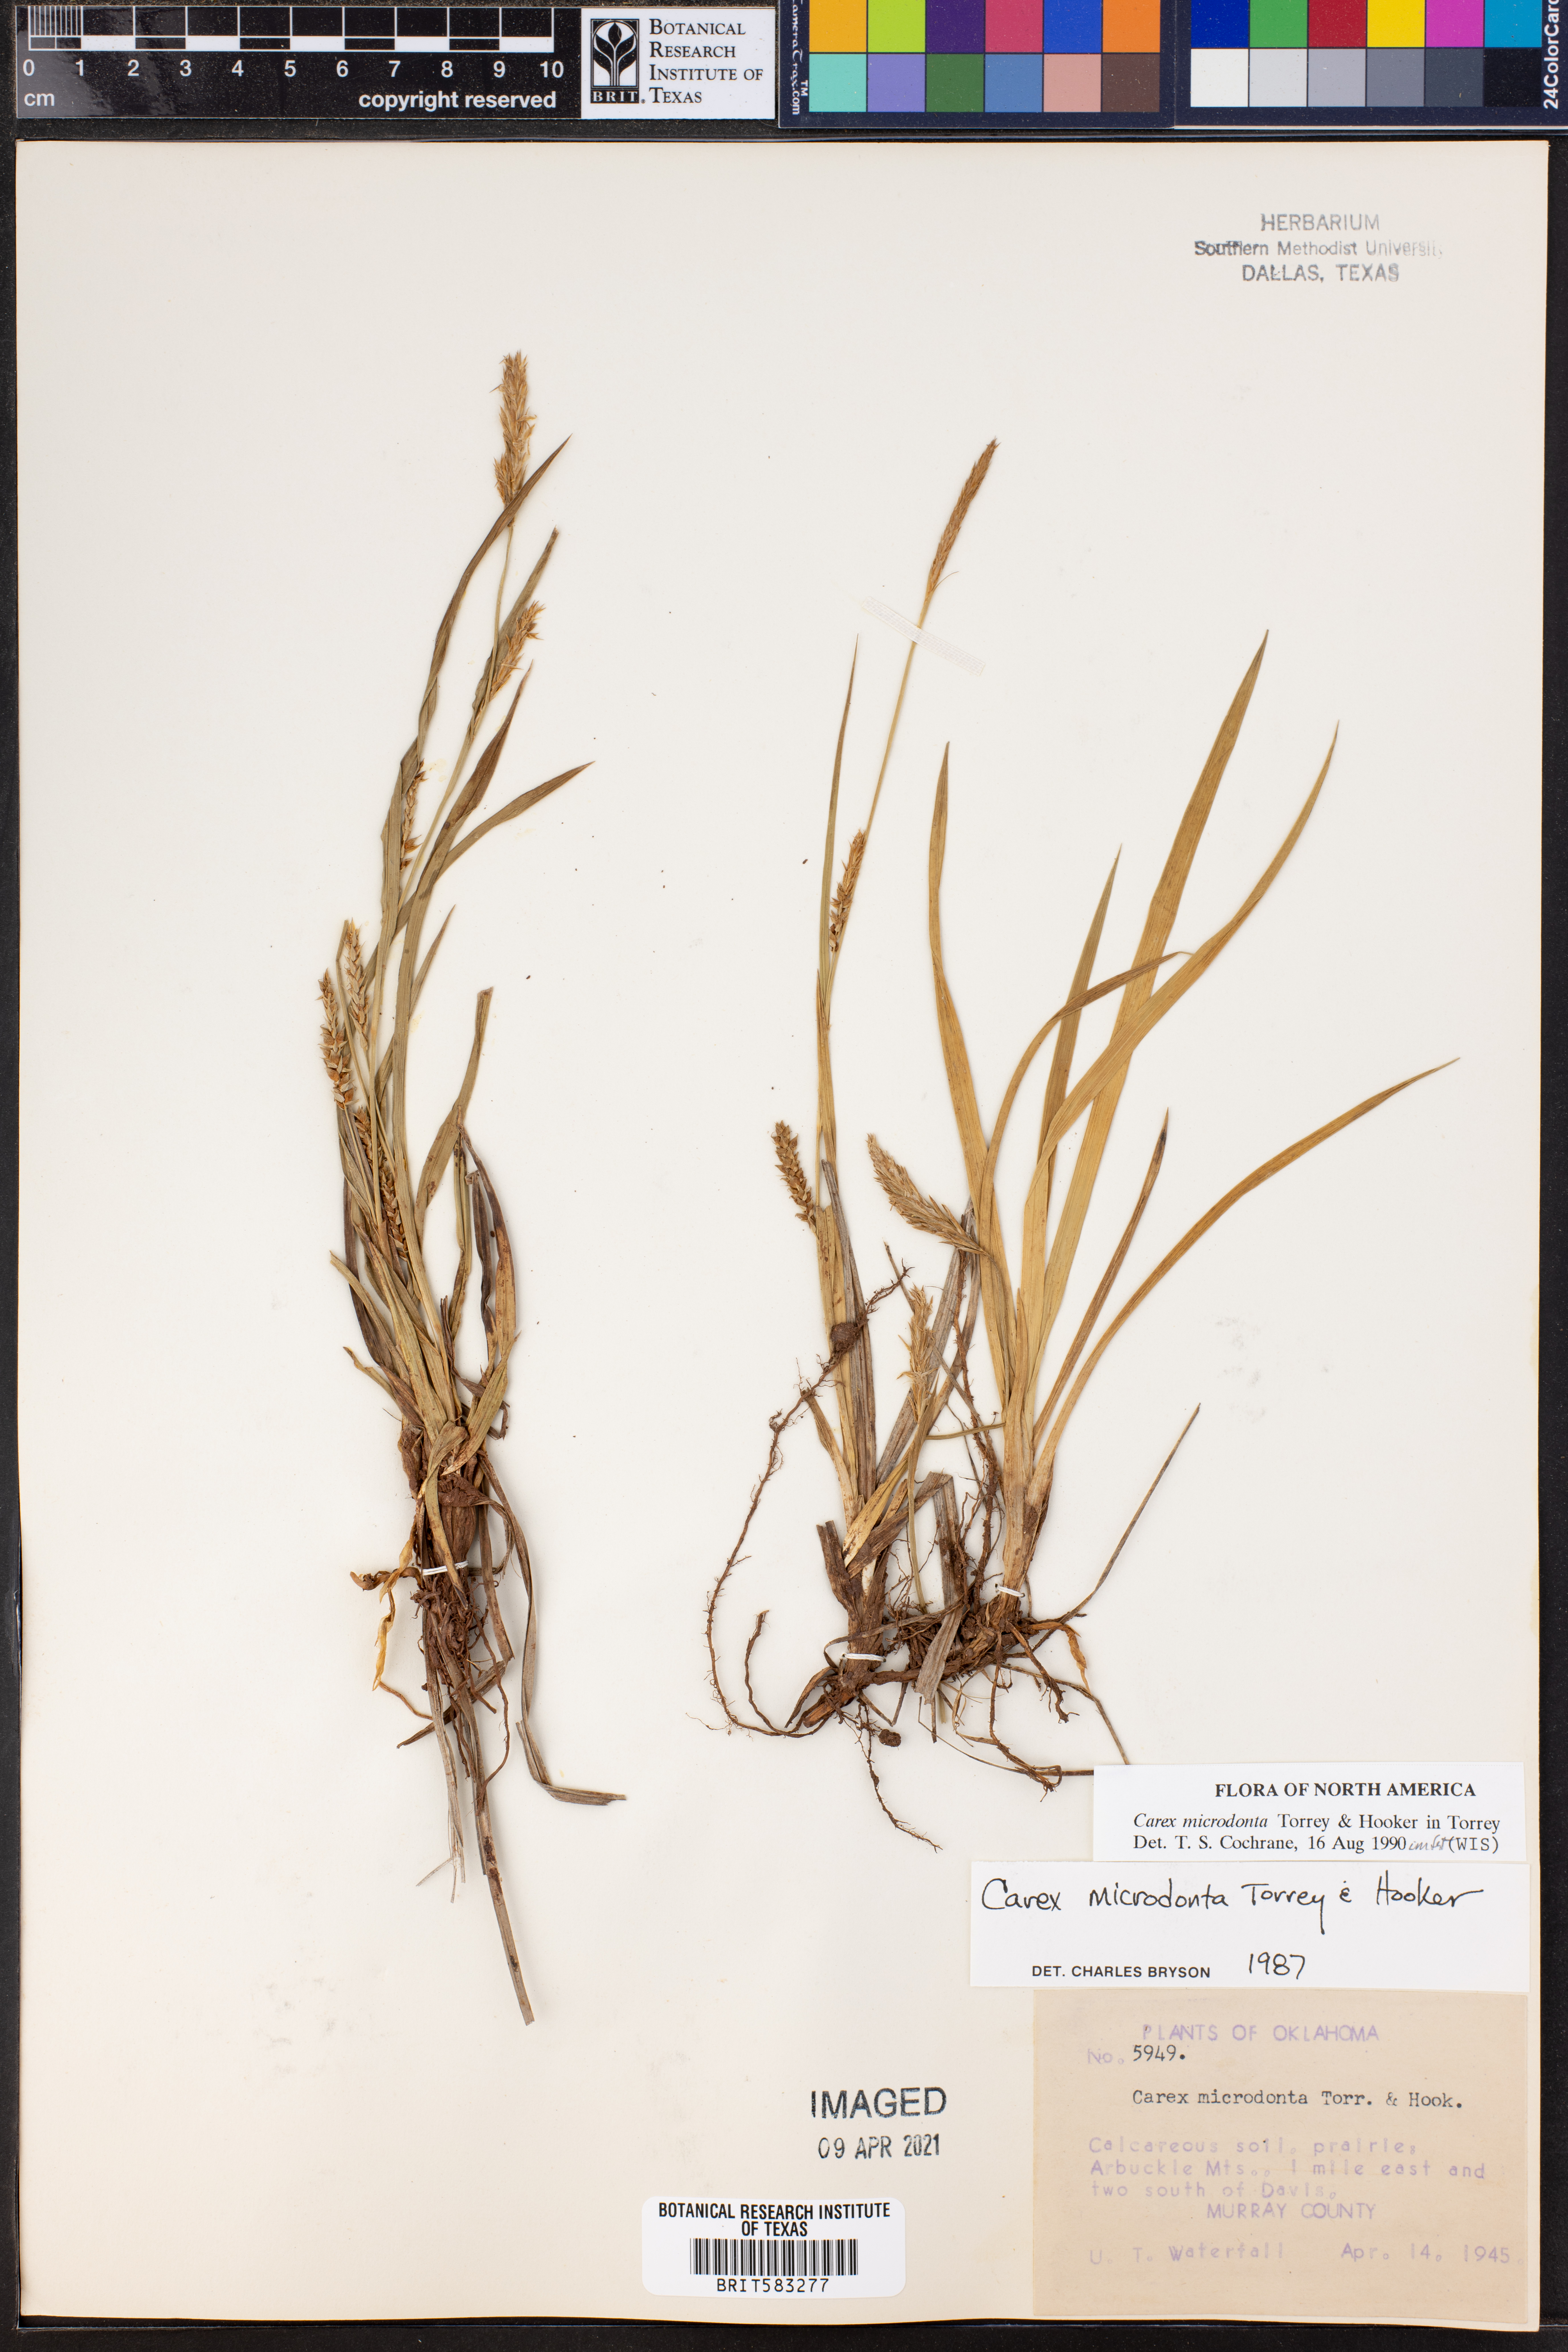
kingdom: Plantae
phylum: Tracheophyta
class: Liliopsida
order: Poales
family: Cyperaceae
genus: Carex
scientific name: Carex microdonta
